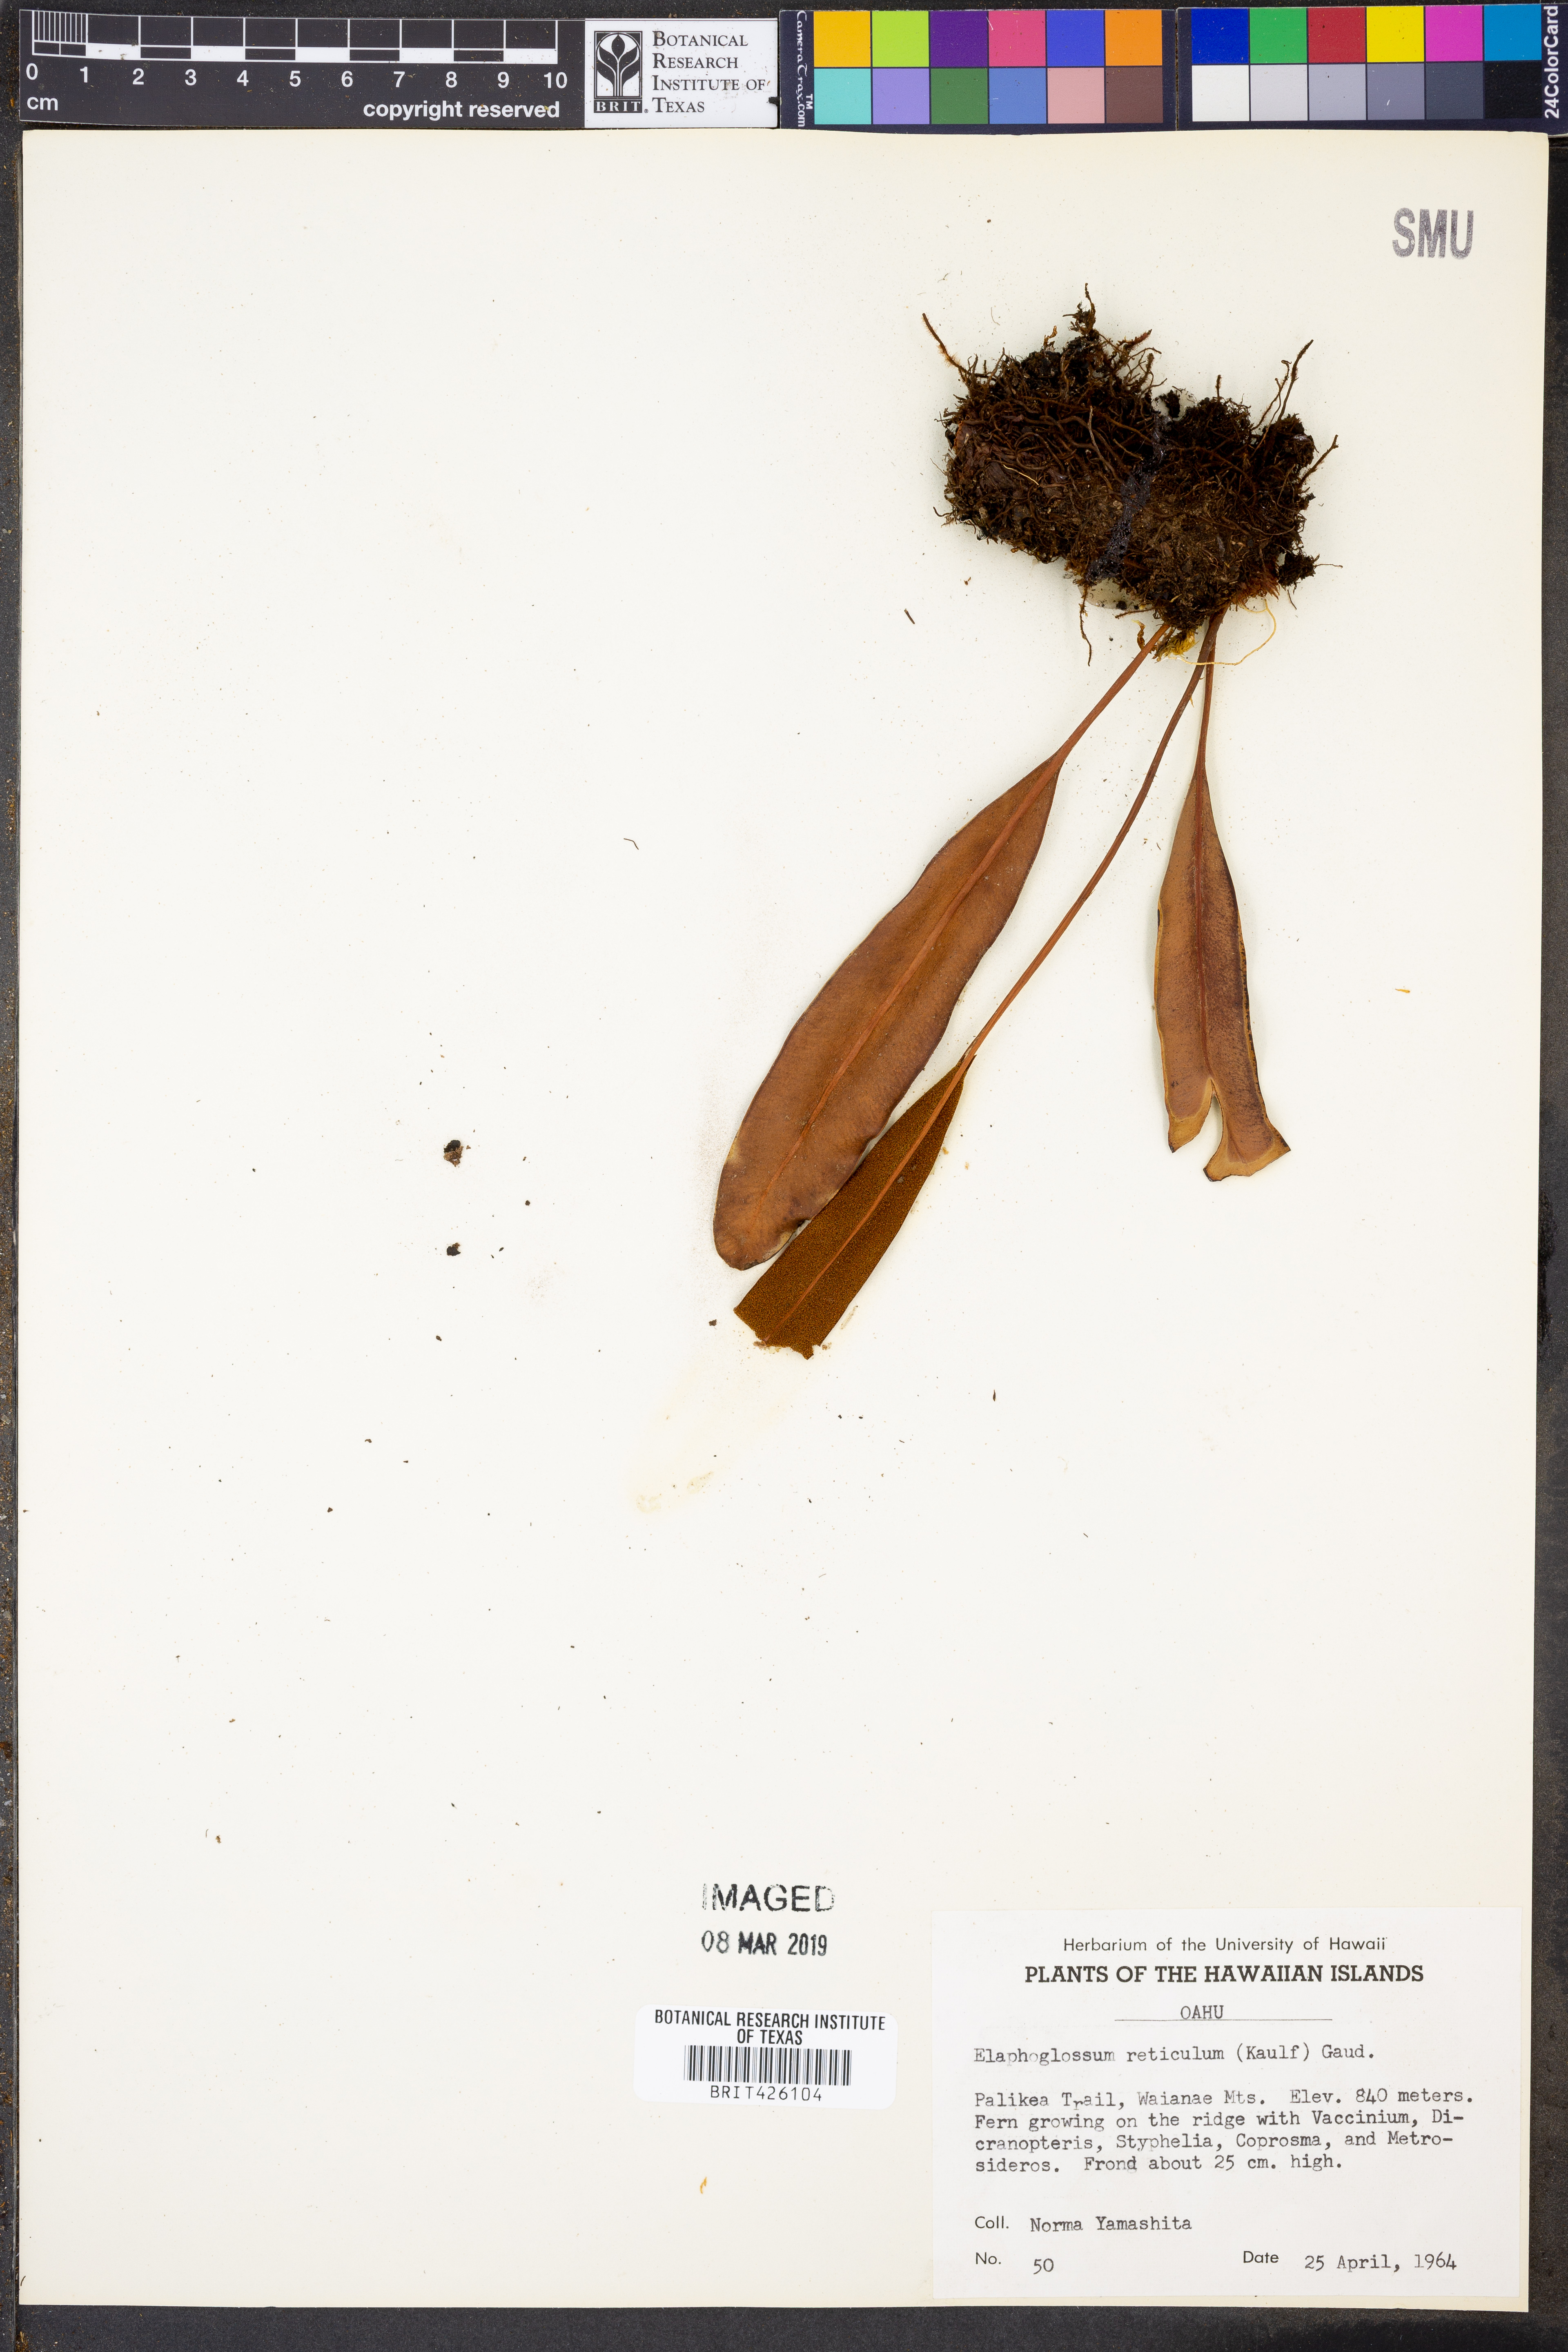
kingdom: Plantae
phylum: Tracheophyta
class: Polypodiopsida
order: Polypodiales
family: Dryopteridaceae
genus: Elaphoglossum
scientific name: Elaphoglossum crassifolium
